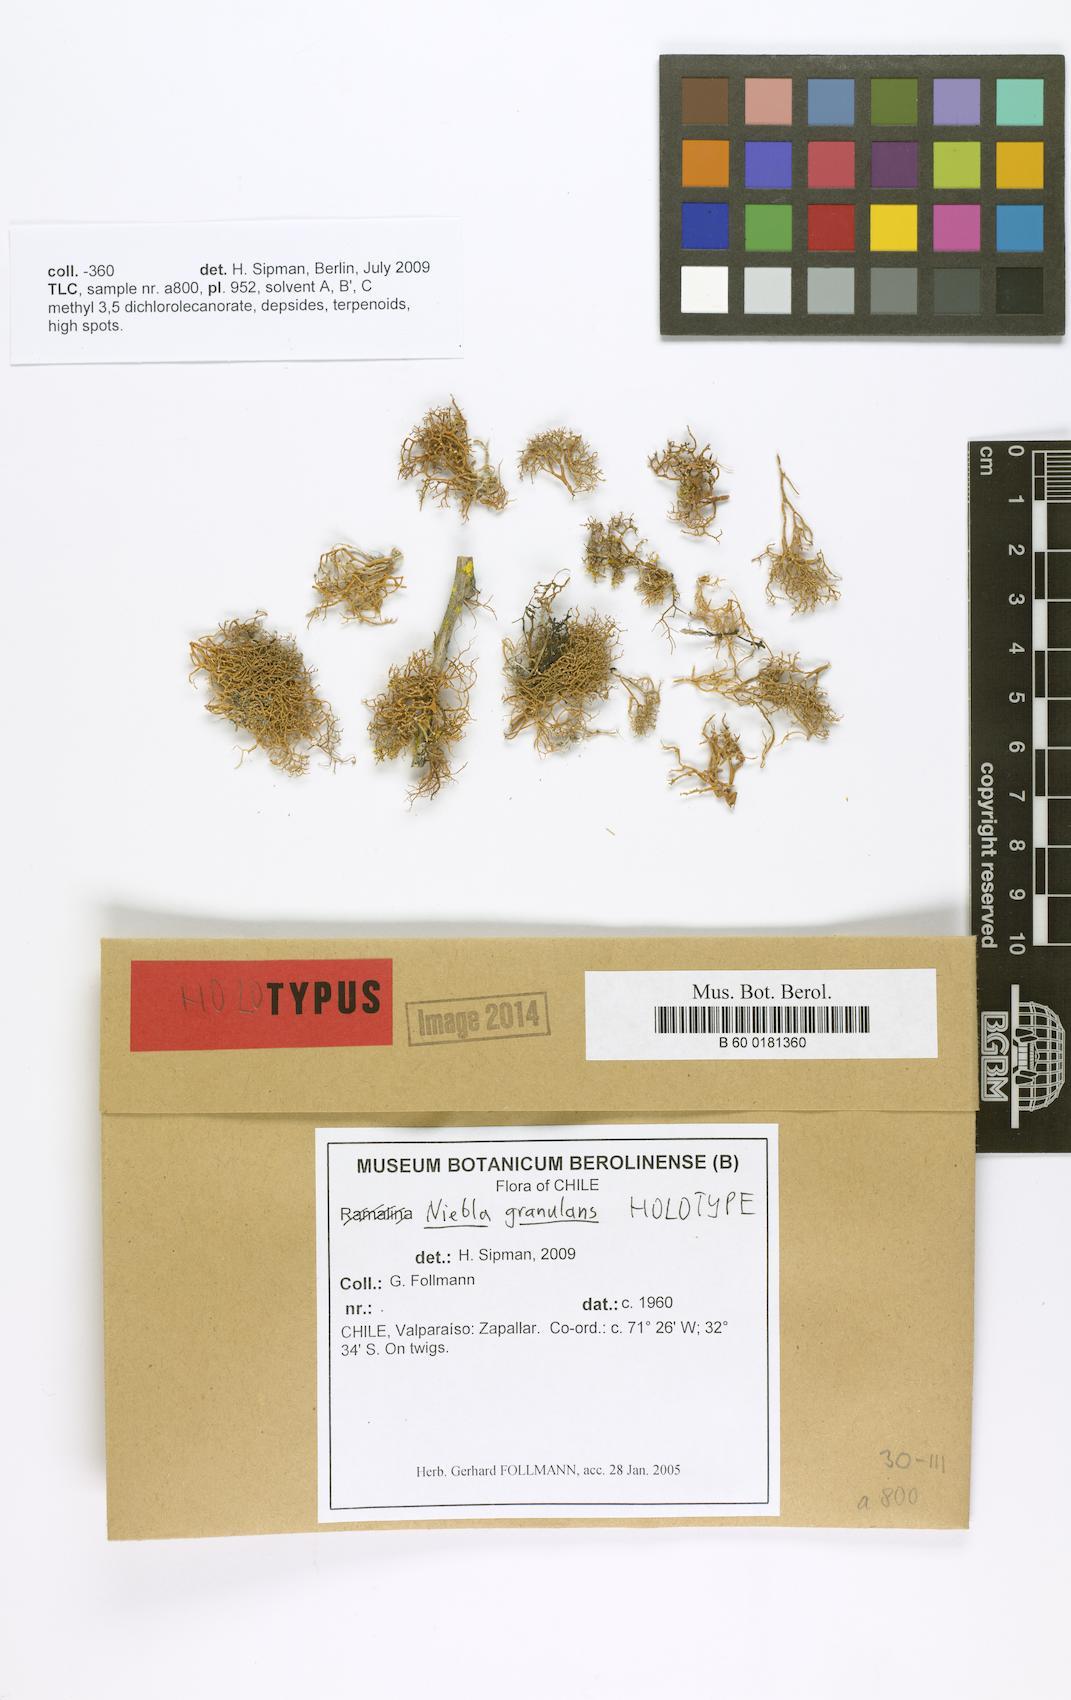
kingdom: Fungi
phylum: Ascomycota
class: Lecanoromycetes
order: Lecanorales
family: Ramalinaceae
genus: Vermilacinia
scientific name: Vermilacinia granulans
